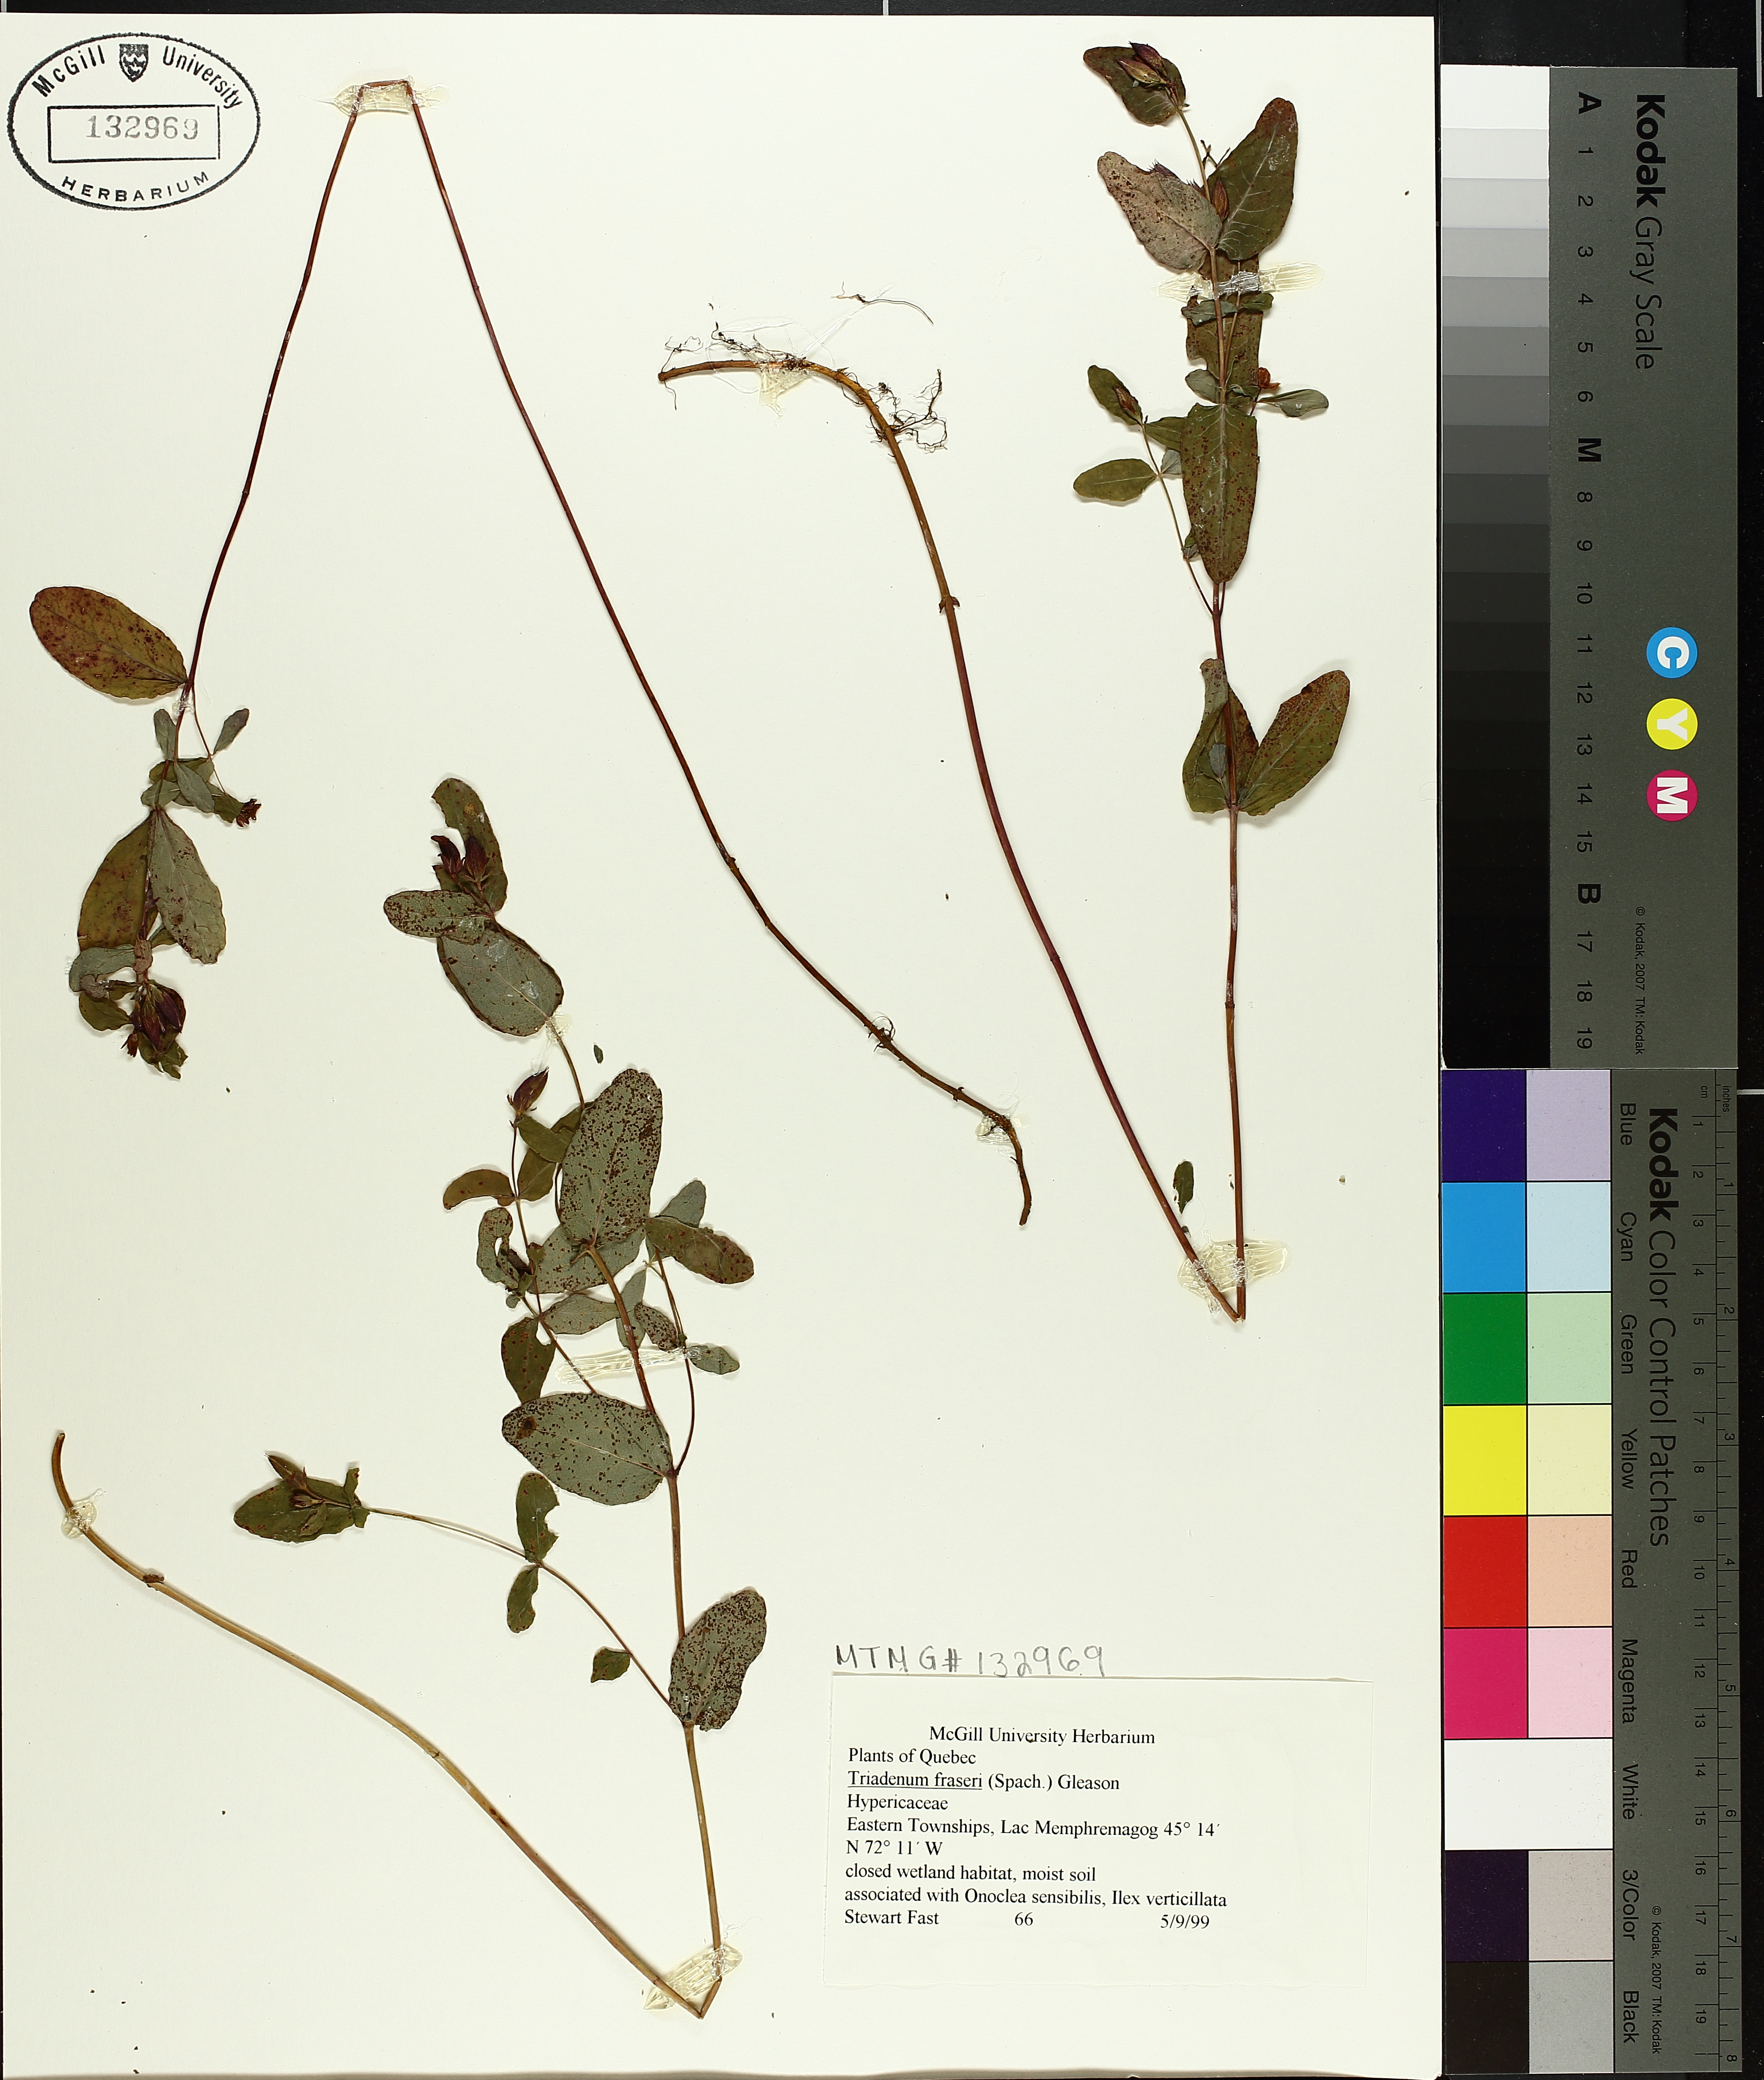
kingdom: Plantae
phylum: Tracheophyta
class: Magnoliopsida
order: Malpighiales
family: Hypericaceae
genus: Triadenum
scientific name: Triadenum fraseri
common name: Fraser's marsh st. johnswort
